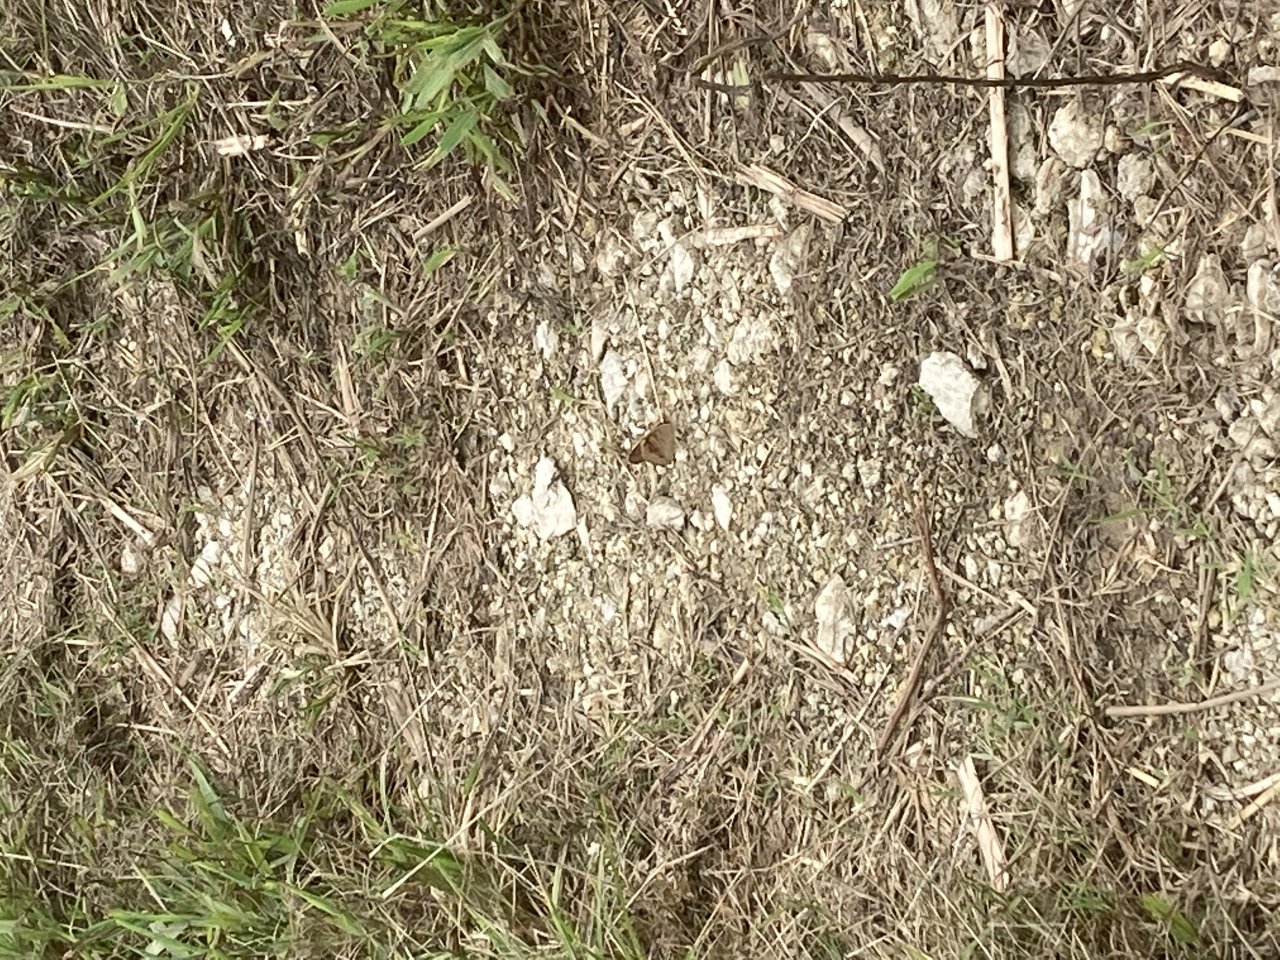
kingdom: Animalia
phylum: Arthropoda
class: Insecta
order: Lepidoptera
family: Nymphalidae
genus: Junonia
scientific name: Junonia coenia
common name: Common Buckeye
